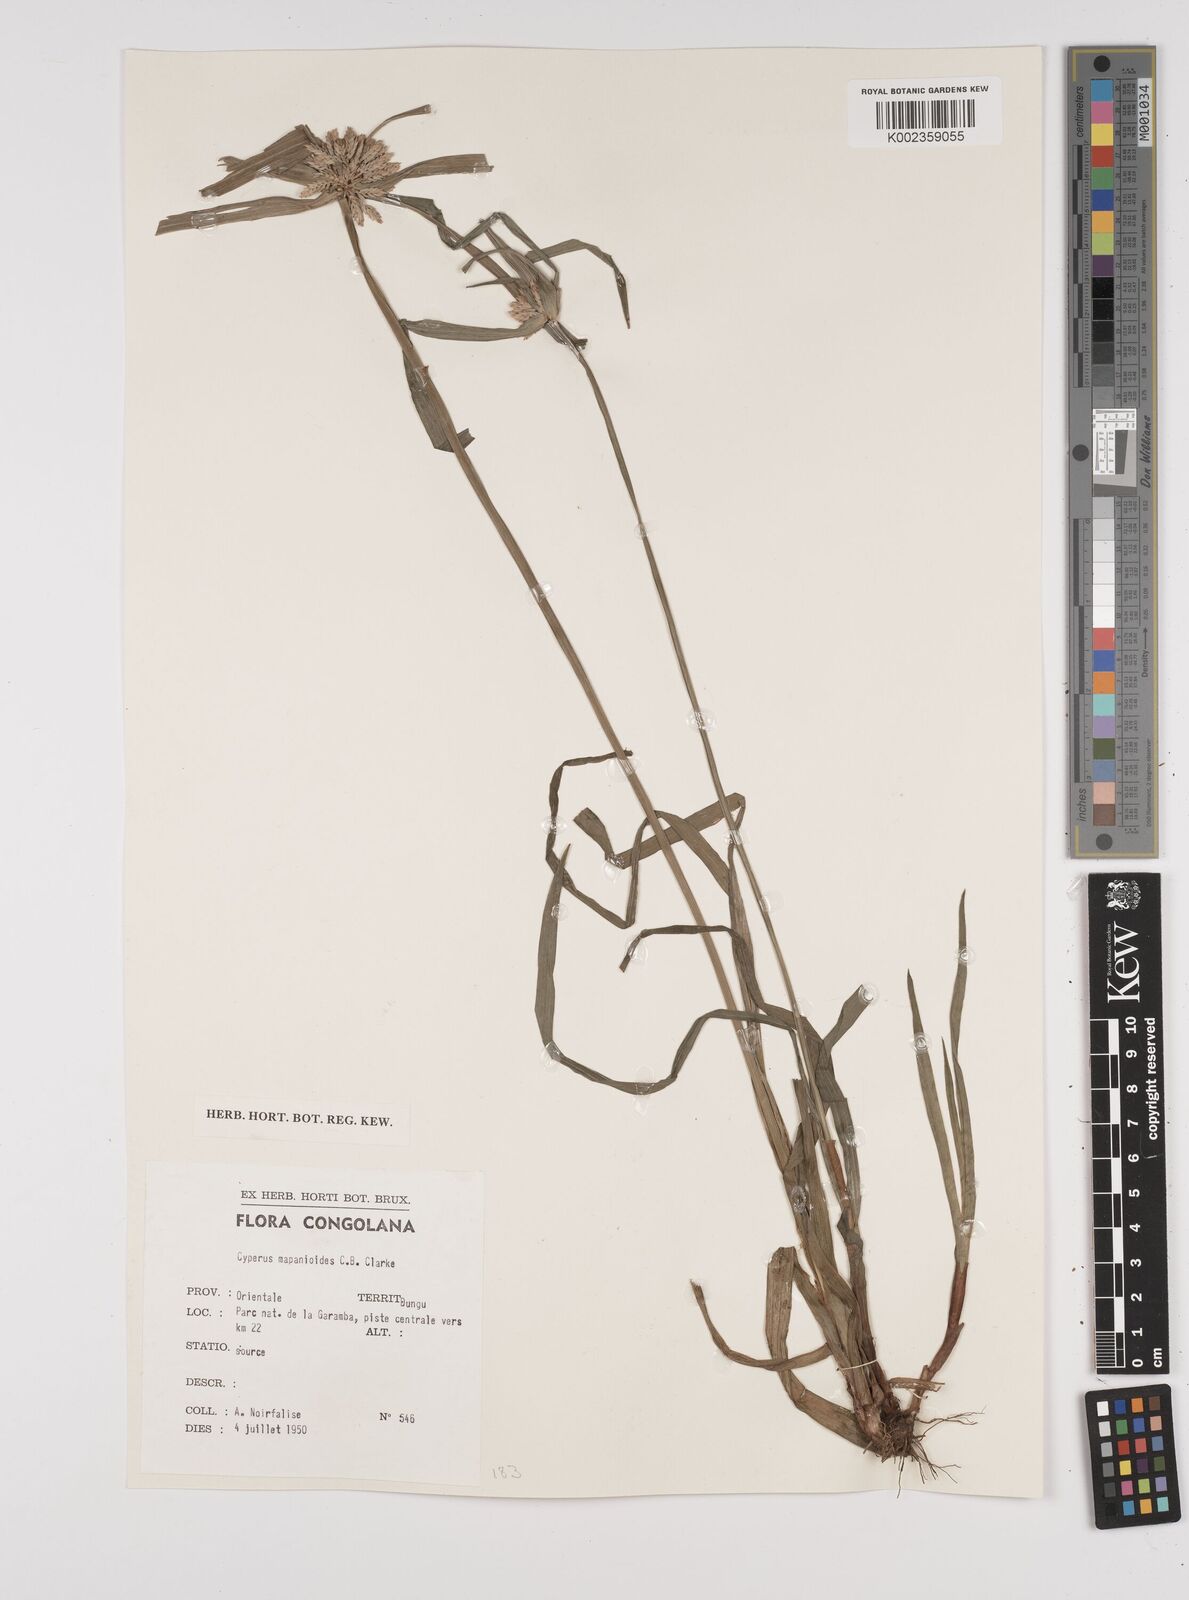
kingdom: Plantae
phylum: Tracheophyta
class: Liliopsida
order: Poales
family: Cyperaceae
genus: Cyperus
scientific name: Cyperus mapanioides
